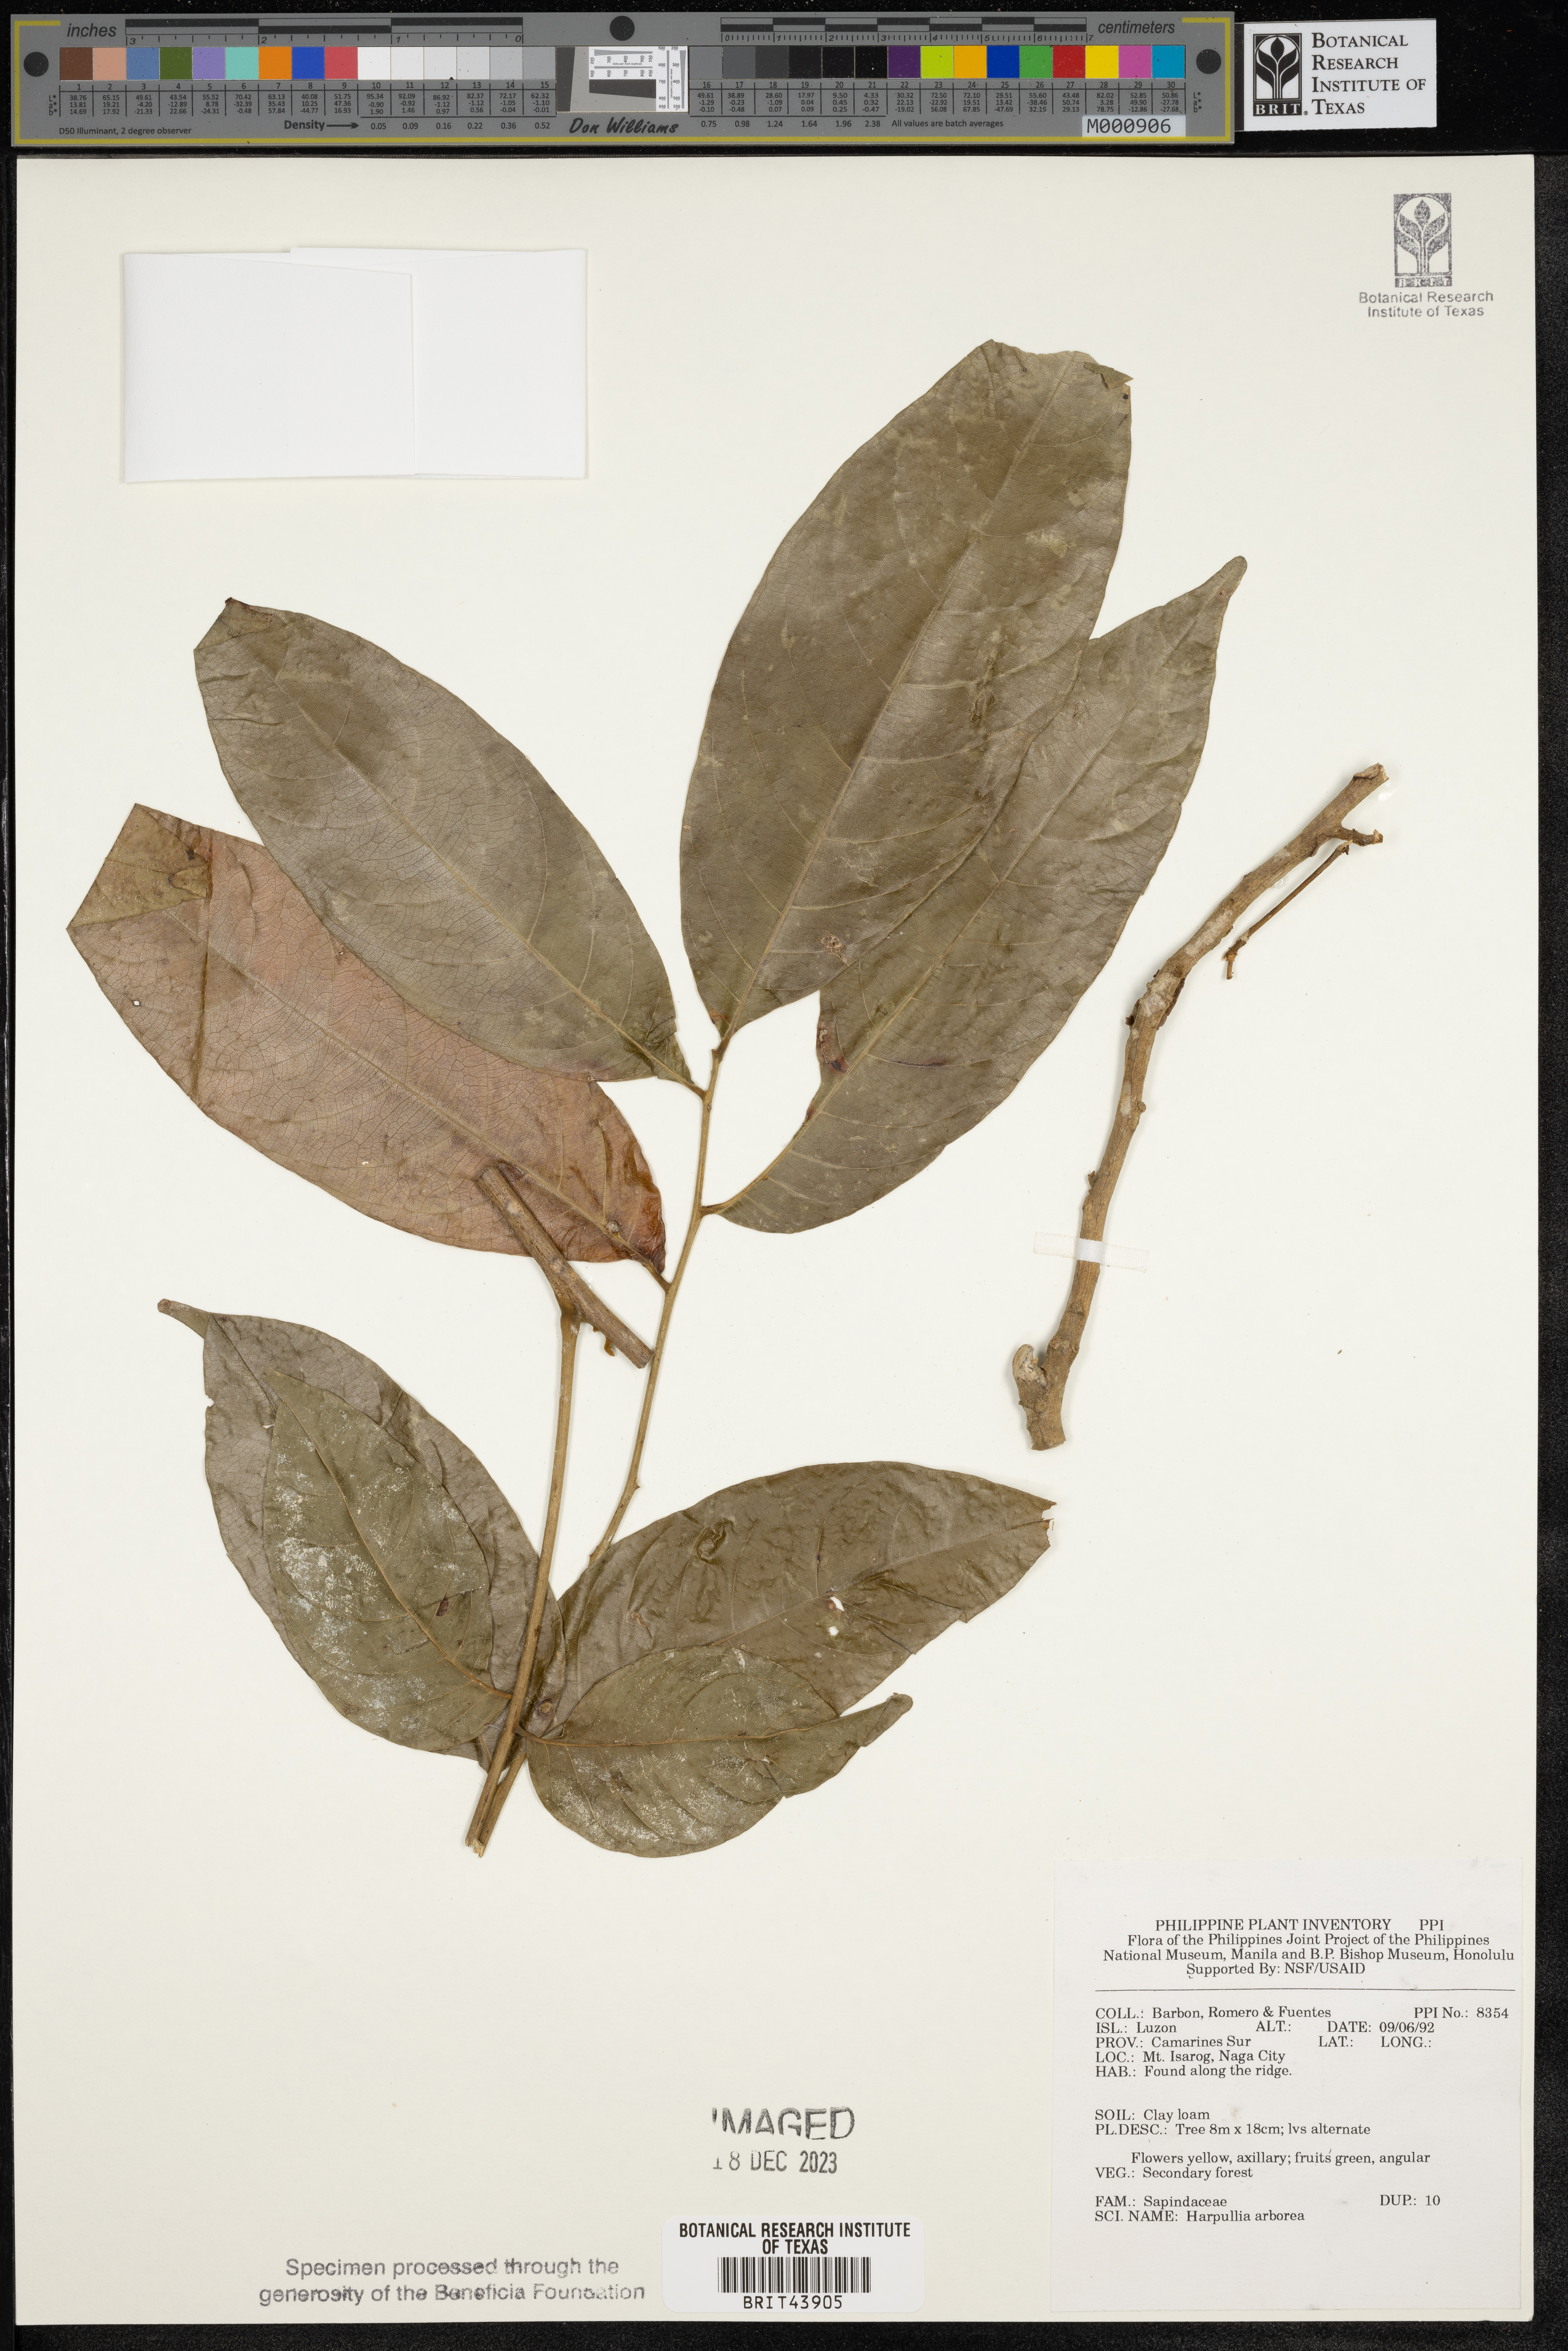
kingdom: Plantae
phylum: Tracheophyta
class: Magnoliopsida
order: Sapindales
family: Sapindaceae
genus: Harpullia
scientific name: Harpullia arborea
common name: Tulip-wood tree
